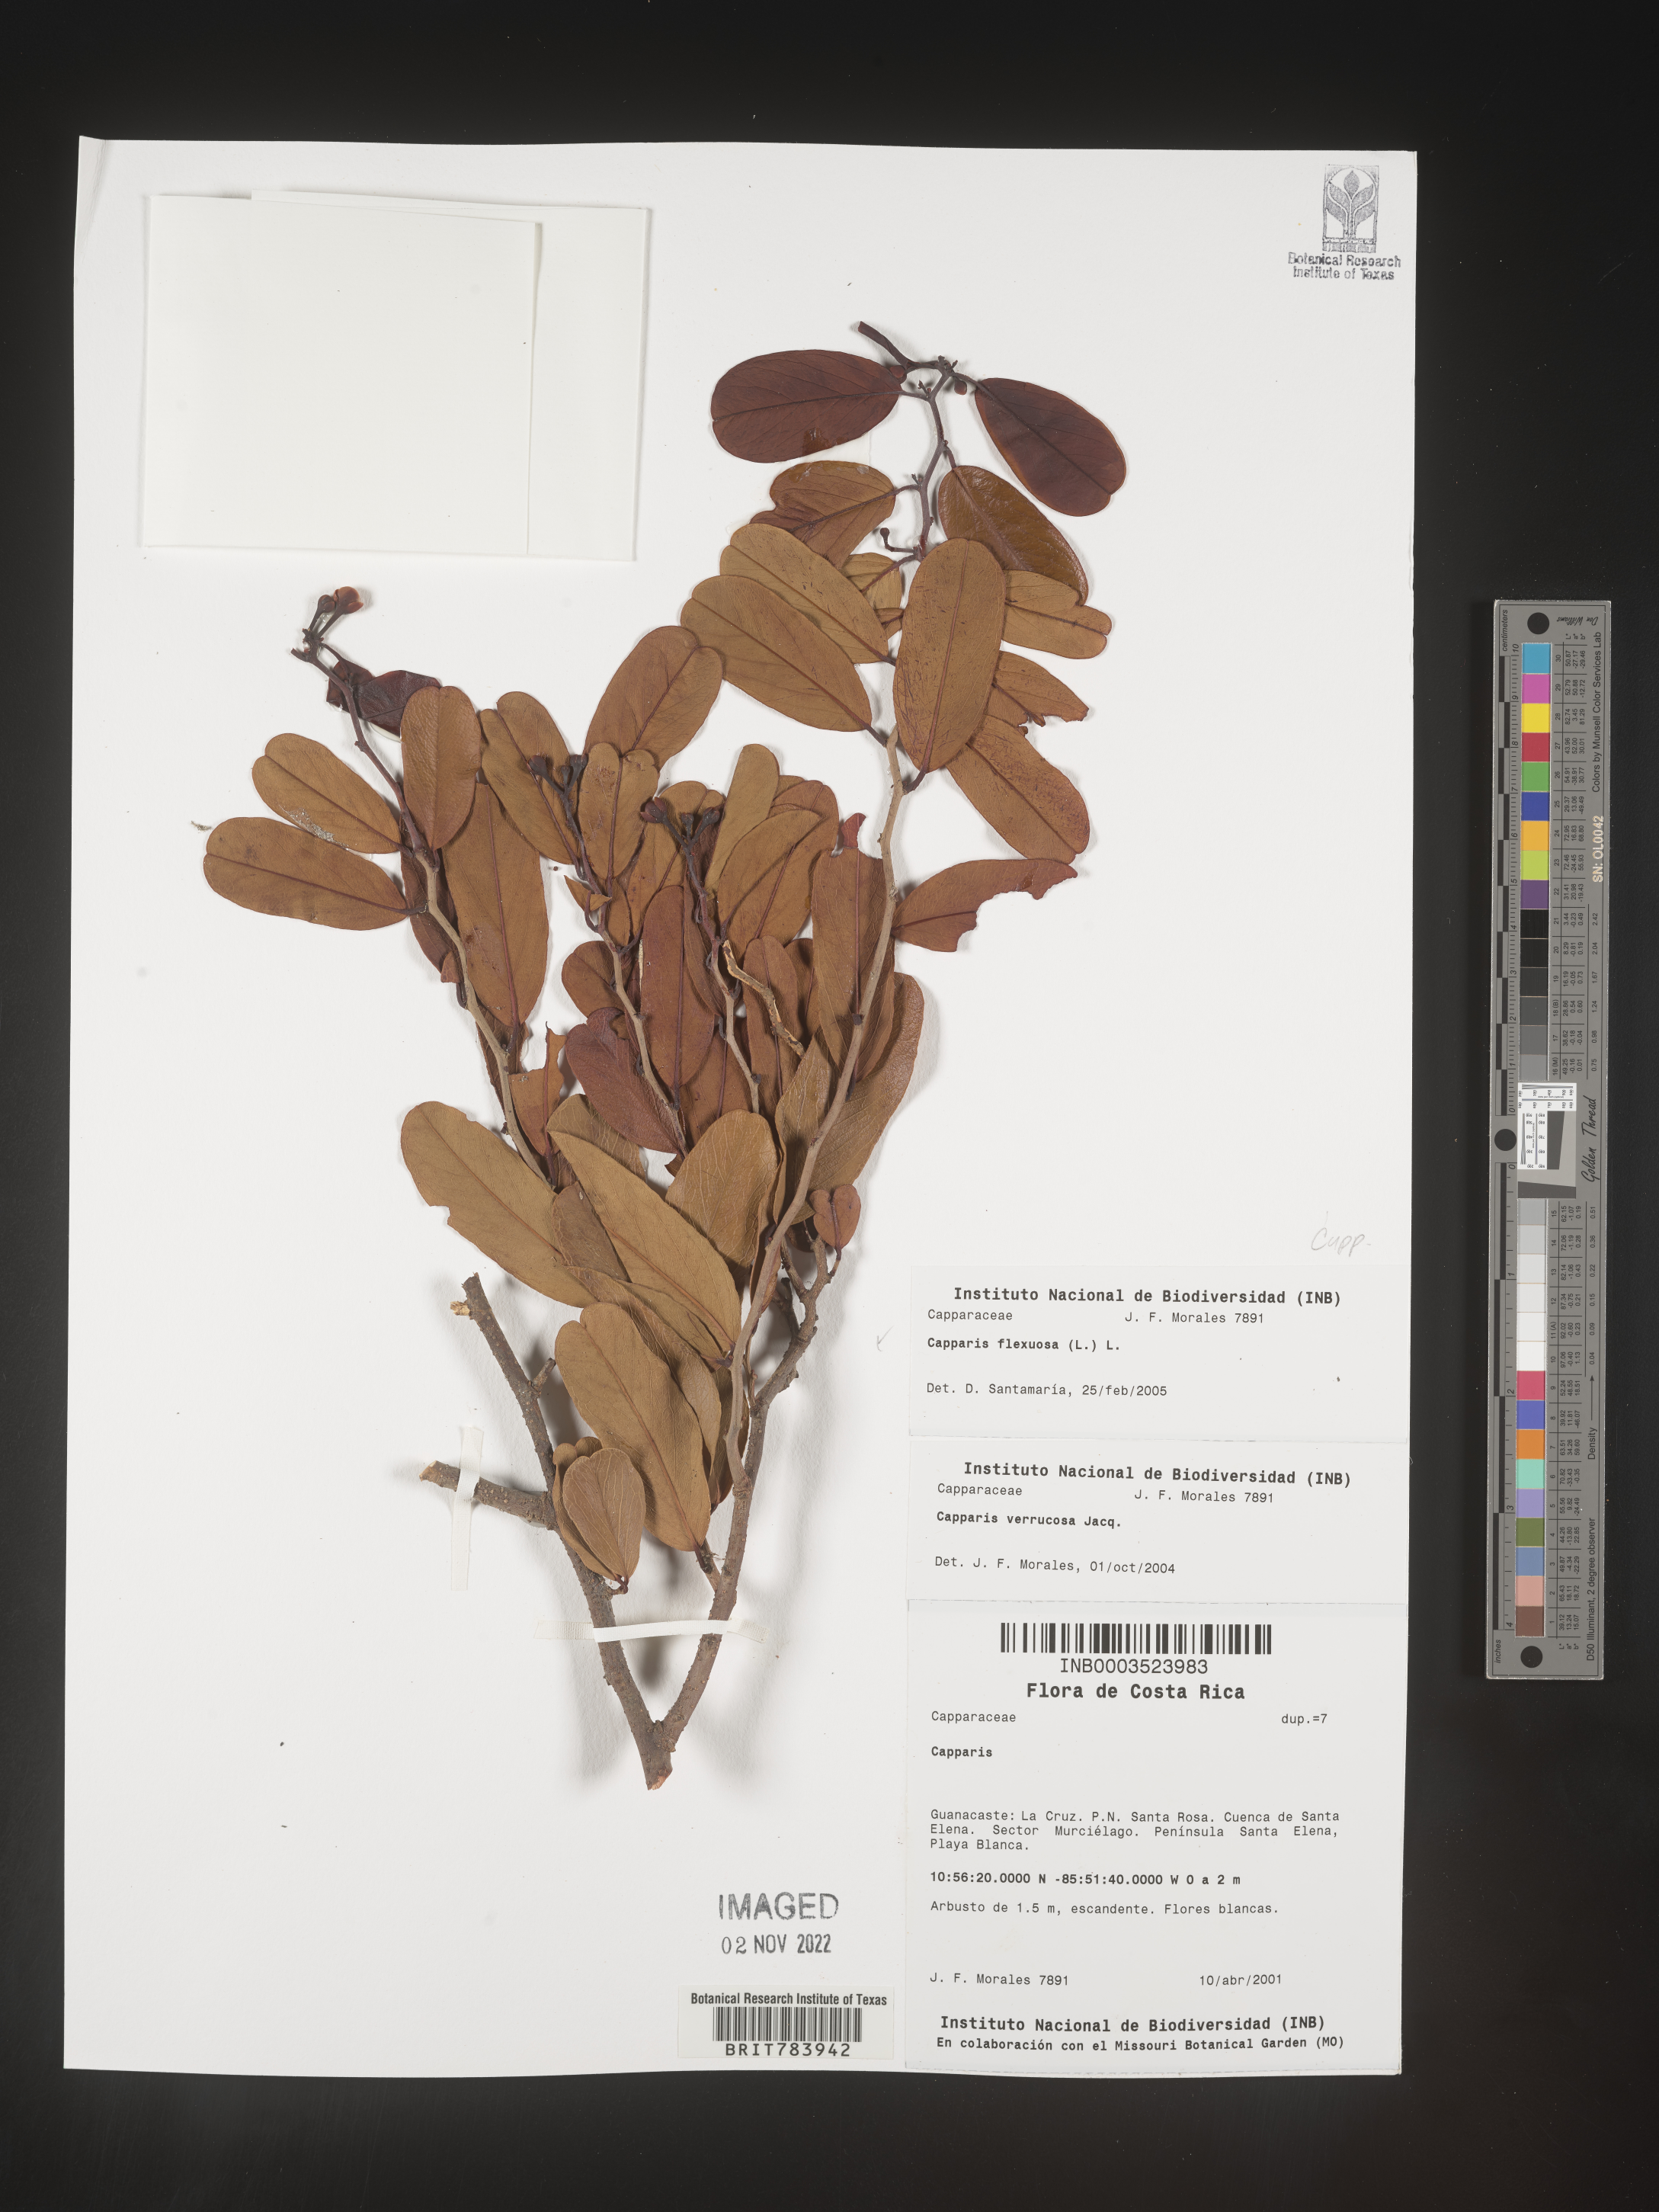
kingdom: Plantae
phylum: Tracheophyta
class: Magnoliopsida
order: Brassicales
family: Capparaceae
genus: Capparis
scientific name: Capparis
